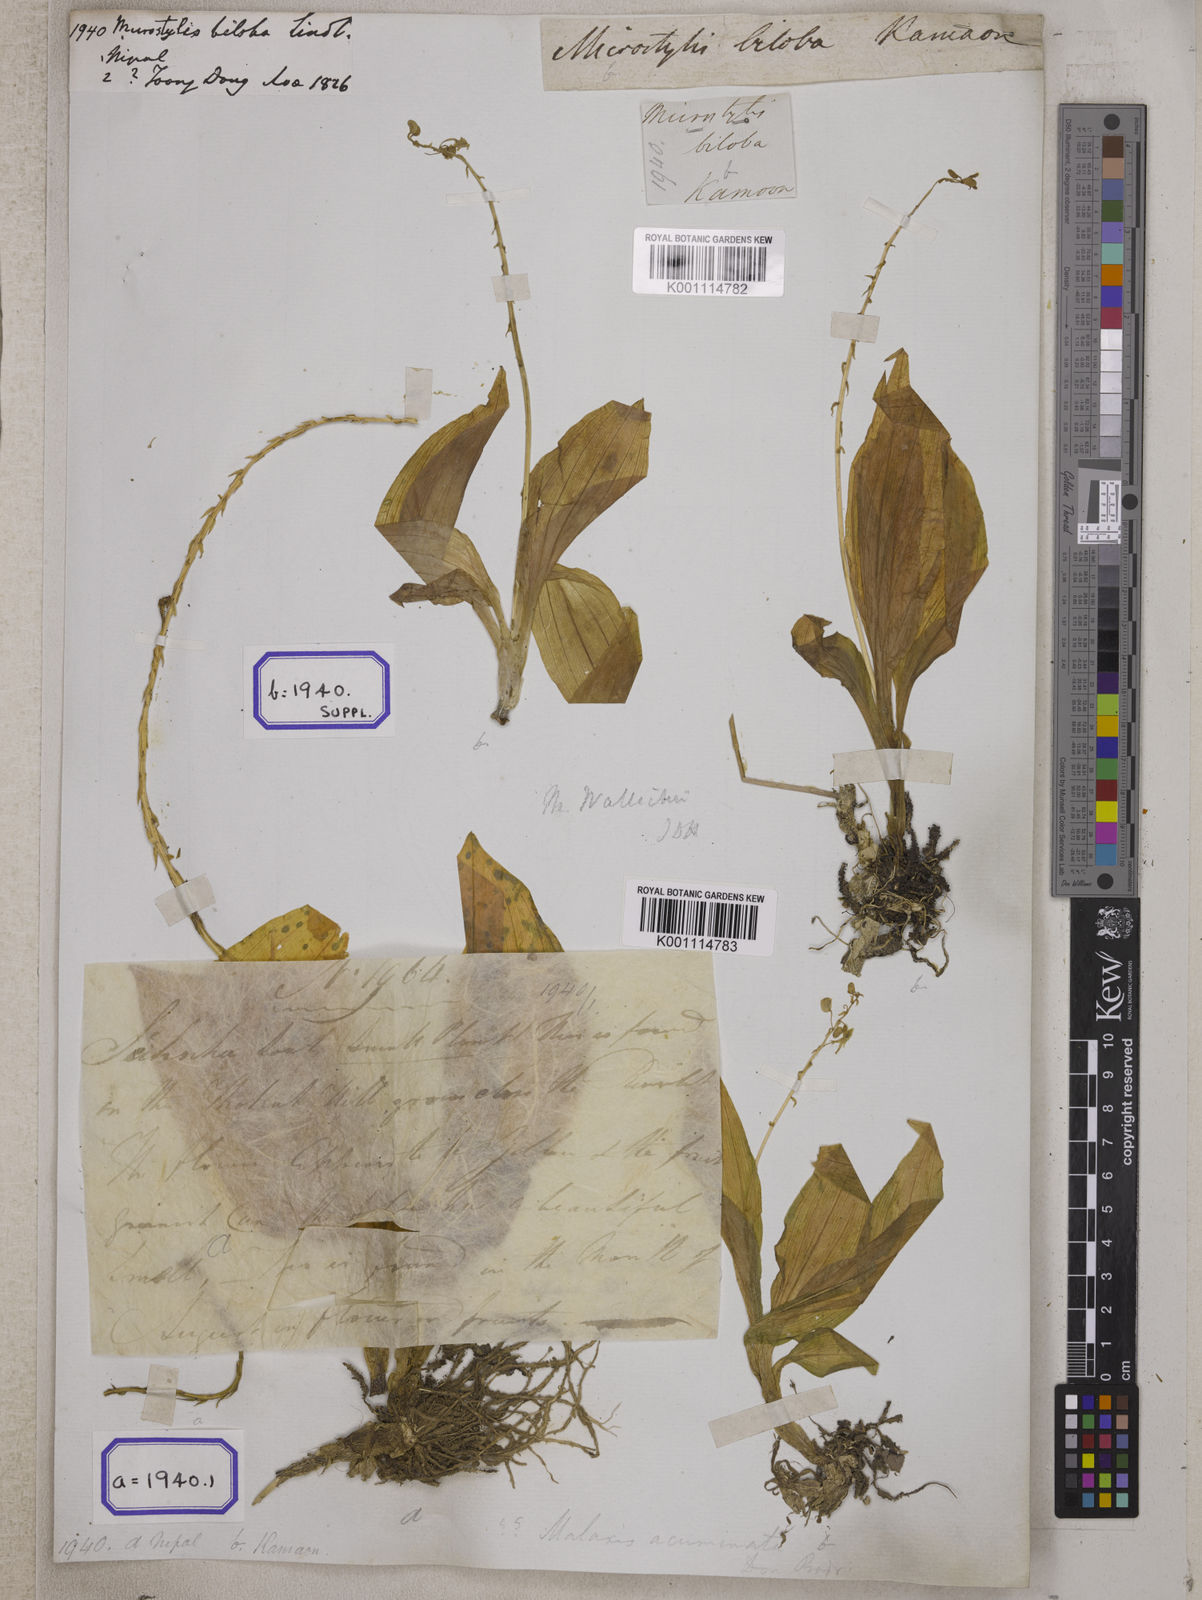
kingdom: Plantae
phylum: Tracheophyta
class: Liliopsida
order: Asparagales
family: Orchidaceae
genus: Crepidium
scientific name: Crepidium purpureum
